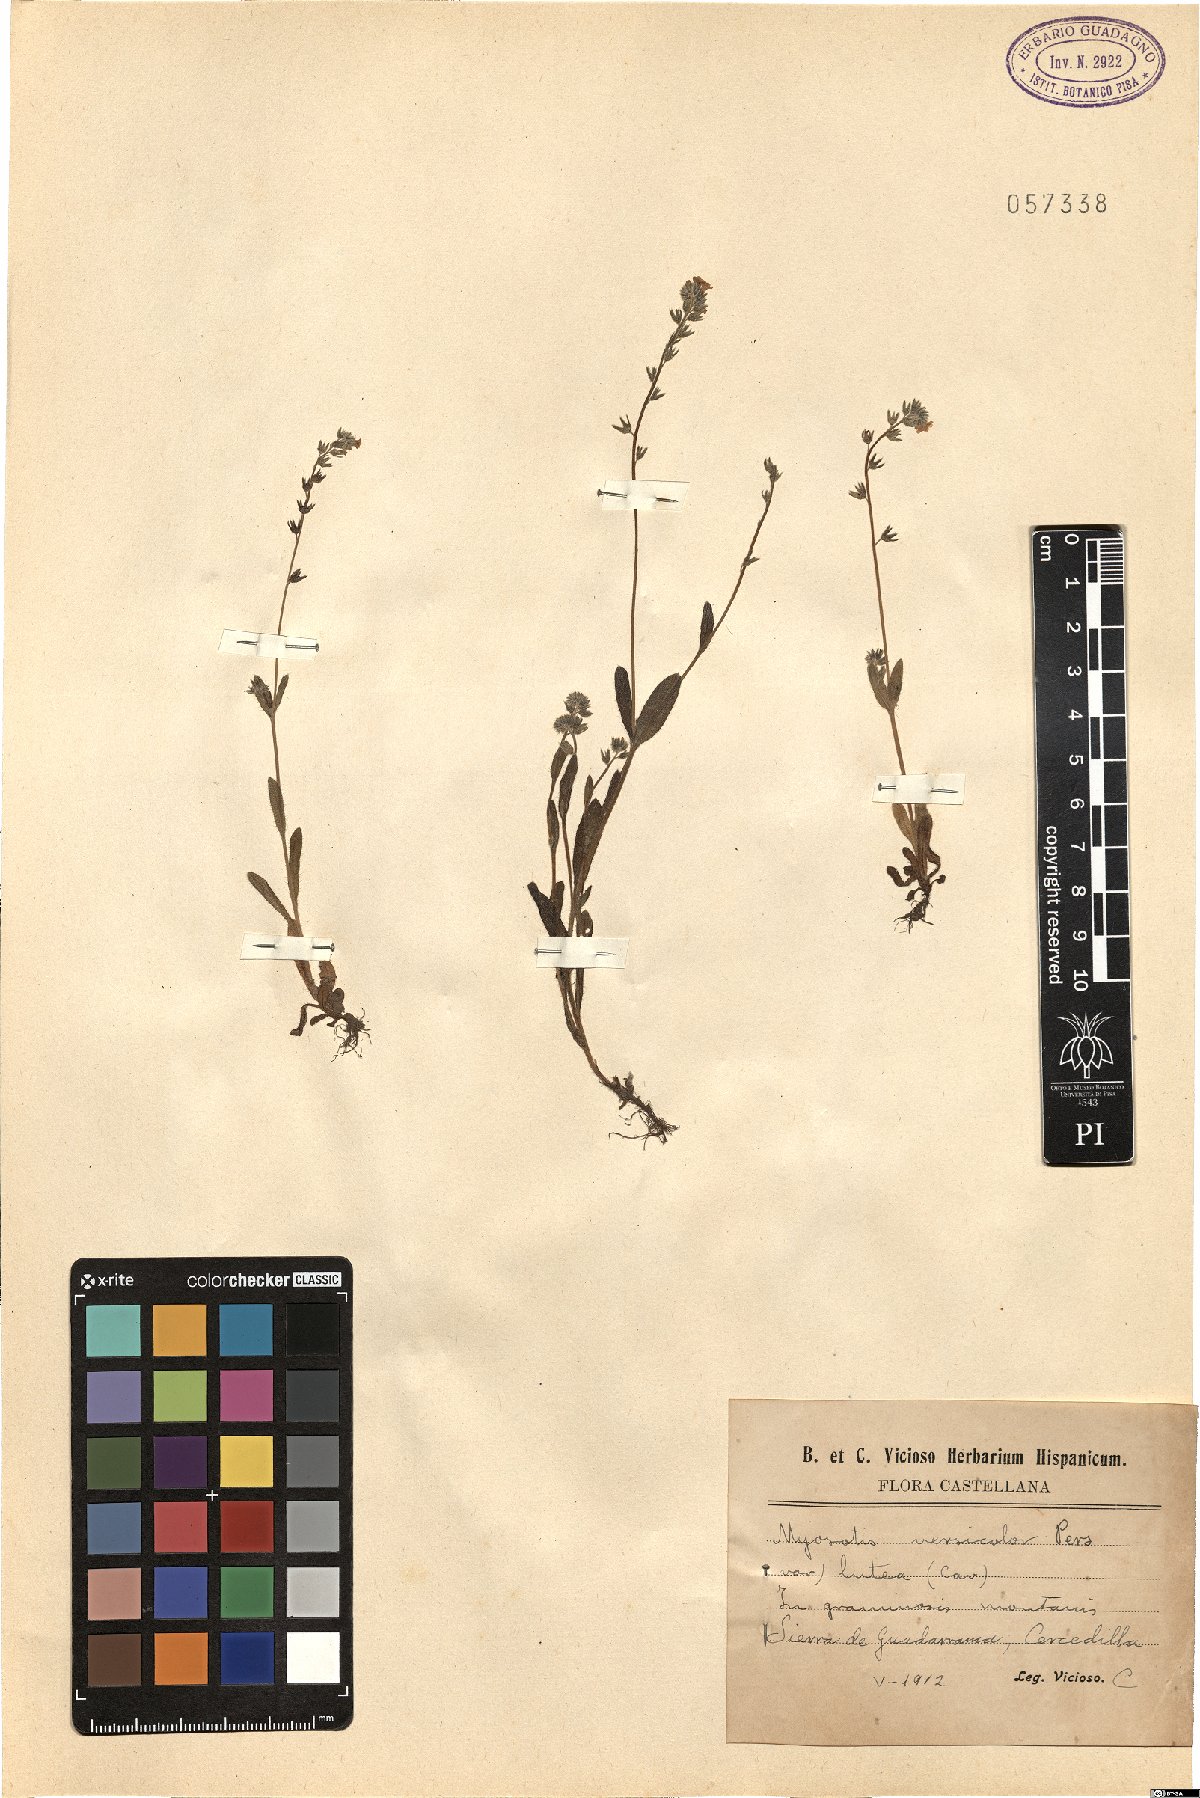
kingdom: Plantae
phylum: Tracheophyta
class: Magnoliopsida
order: Boraginales
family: Boraginaceae
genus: Myosotis
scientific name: Myosotis discolor
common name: Changing forget-me-not
